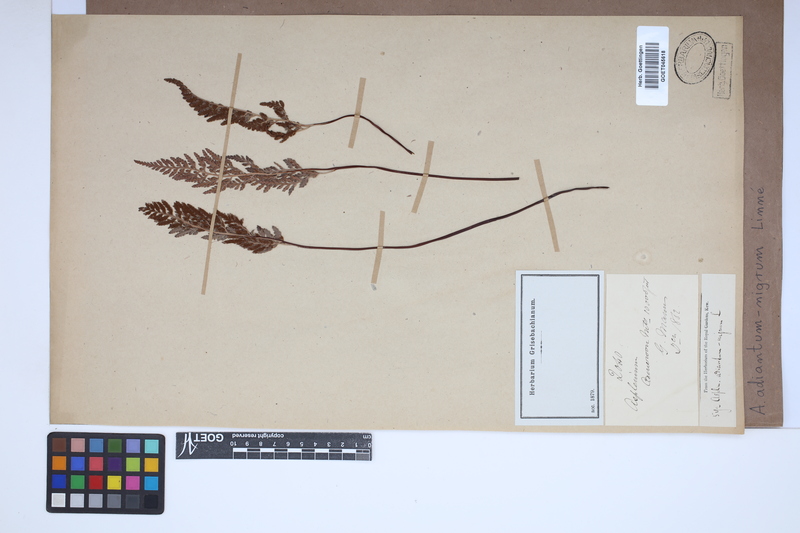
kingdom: Plantae
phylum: Tracheophyta
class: Polypodiopsida
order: Polypodiales
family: Aspleniaceae
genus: Asplenium
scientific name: Asplenium adiantum-nigrum
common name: Black spleenwort
